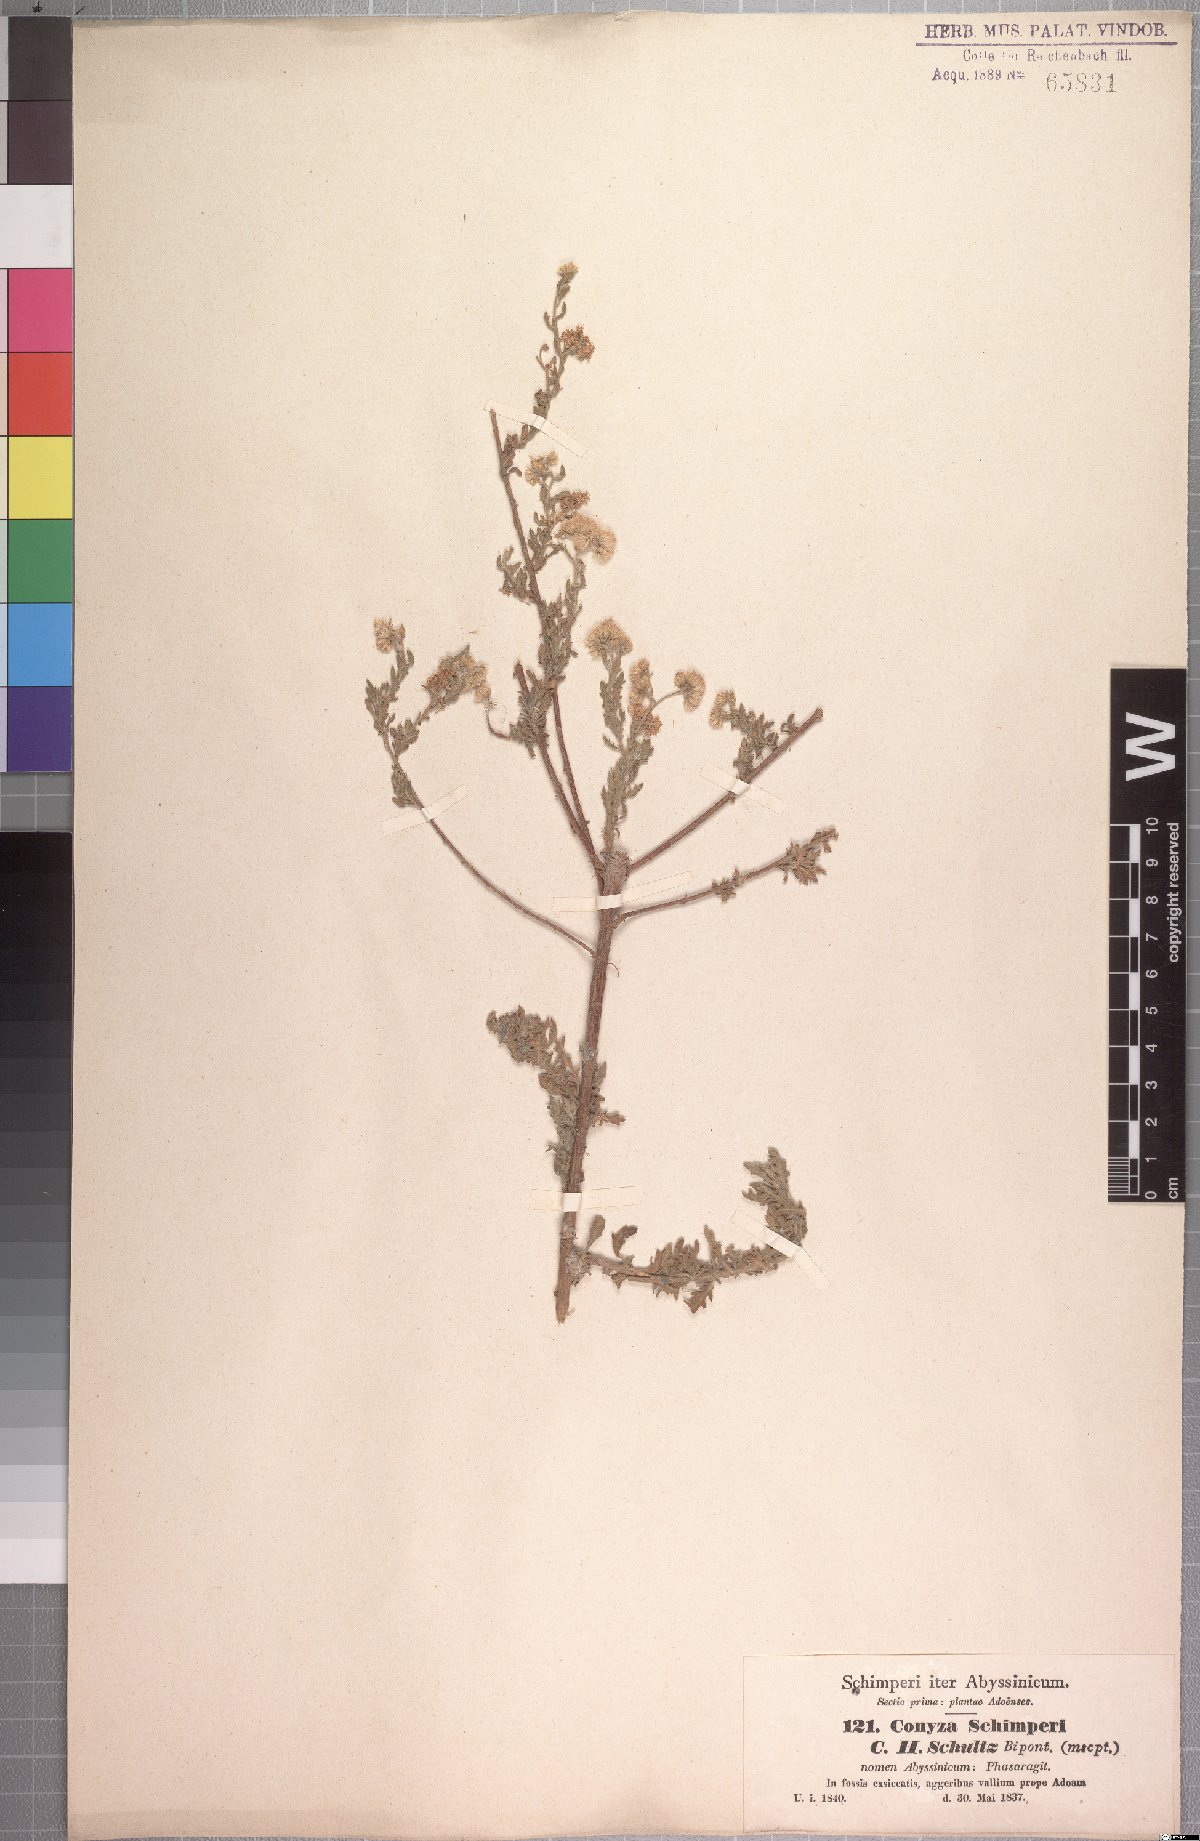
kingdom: Plantae
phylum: Tracheophyta
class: Magnoliopsida
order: Asterales
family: Asteraceae
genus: Conyza
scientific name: Conyza schimperi
